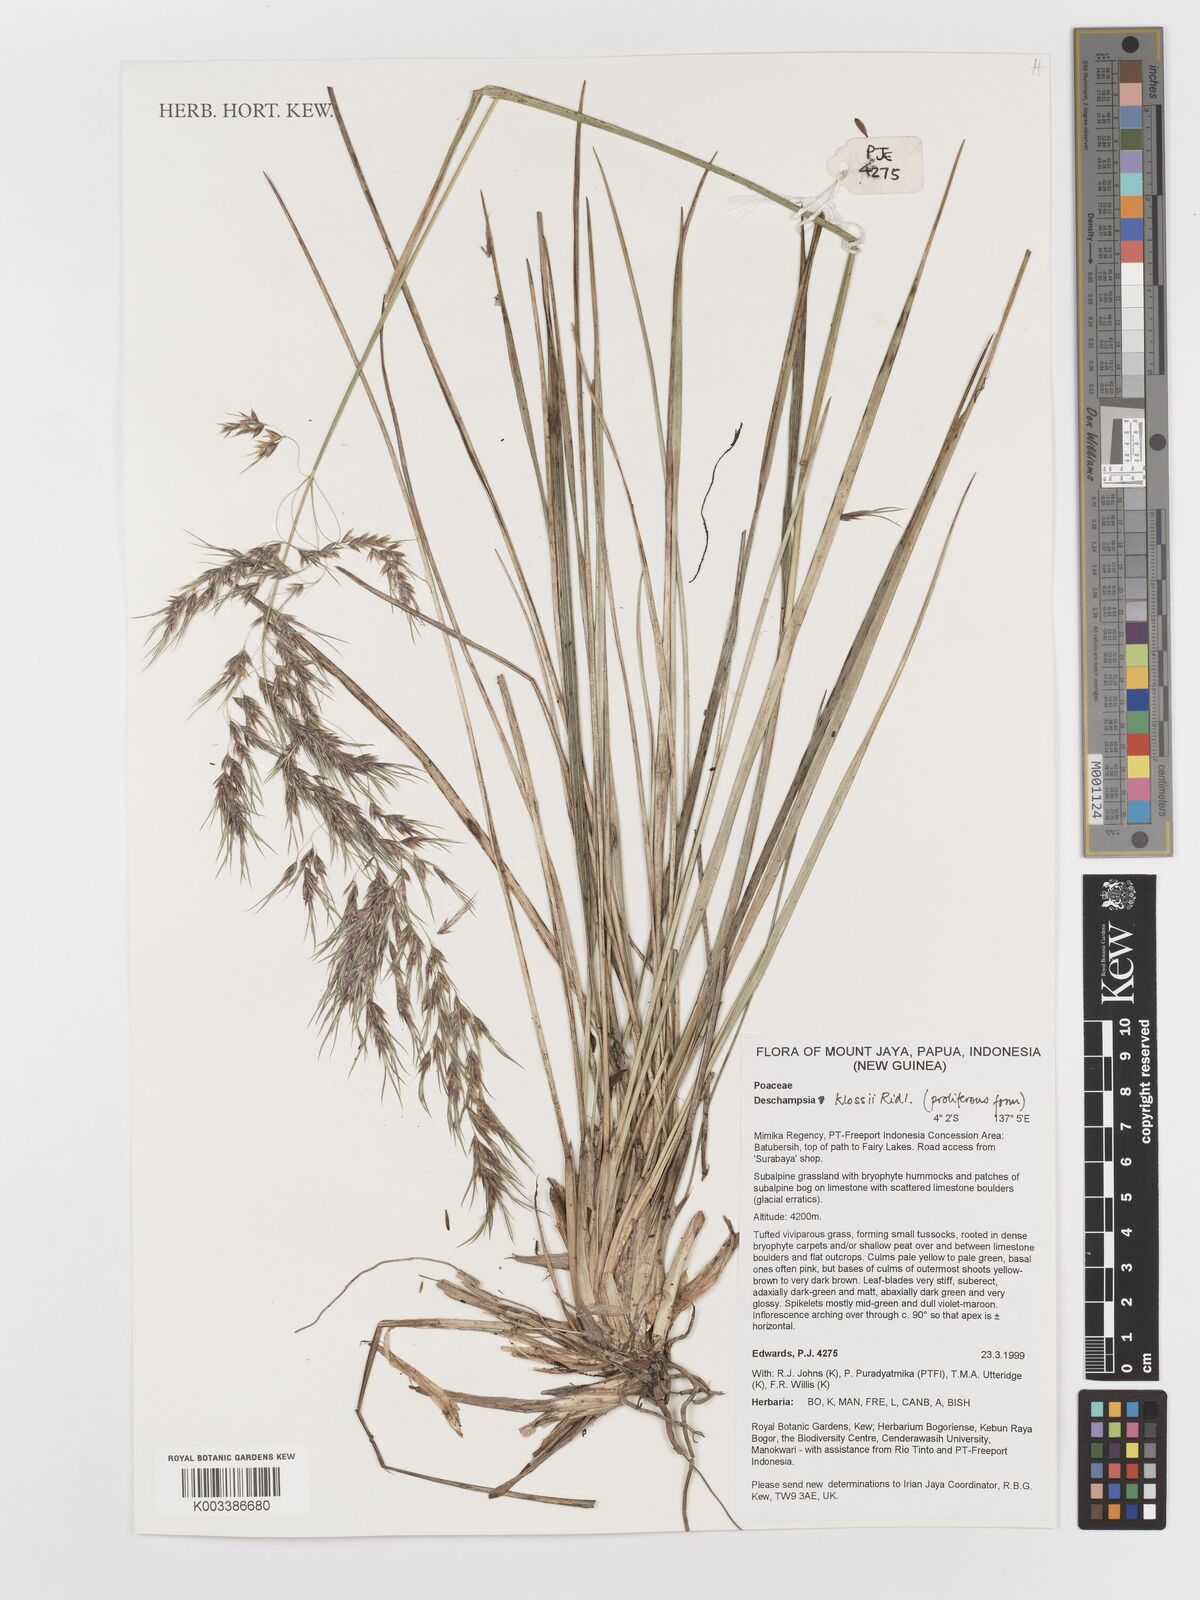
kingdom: Plantae
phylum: Tracheophyta
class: Liliopsida
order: Poales
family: Poaceae
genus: Deschampsia
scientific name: Deschampsia klossii
